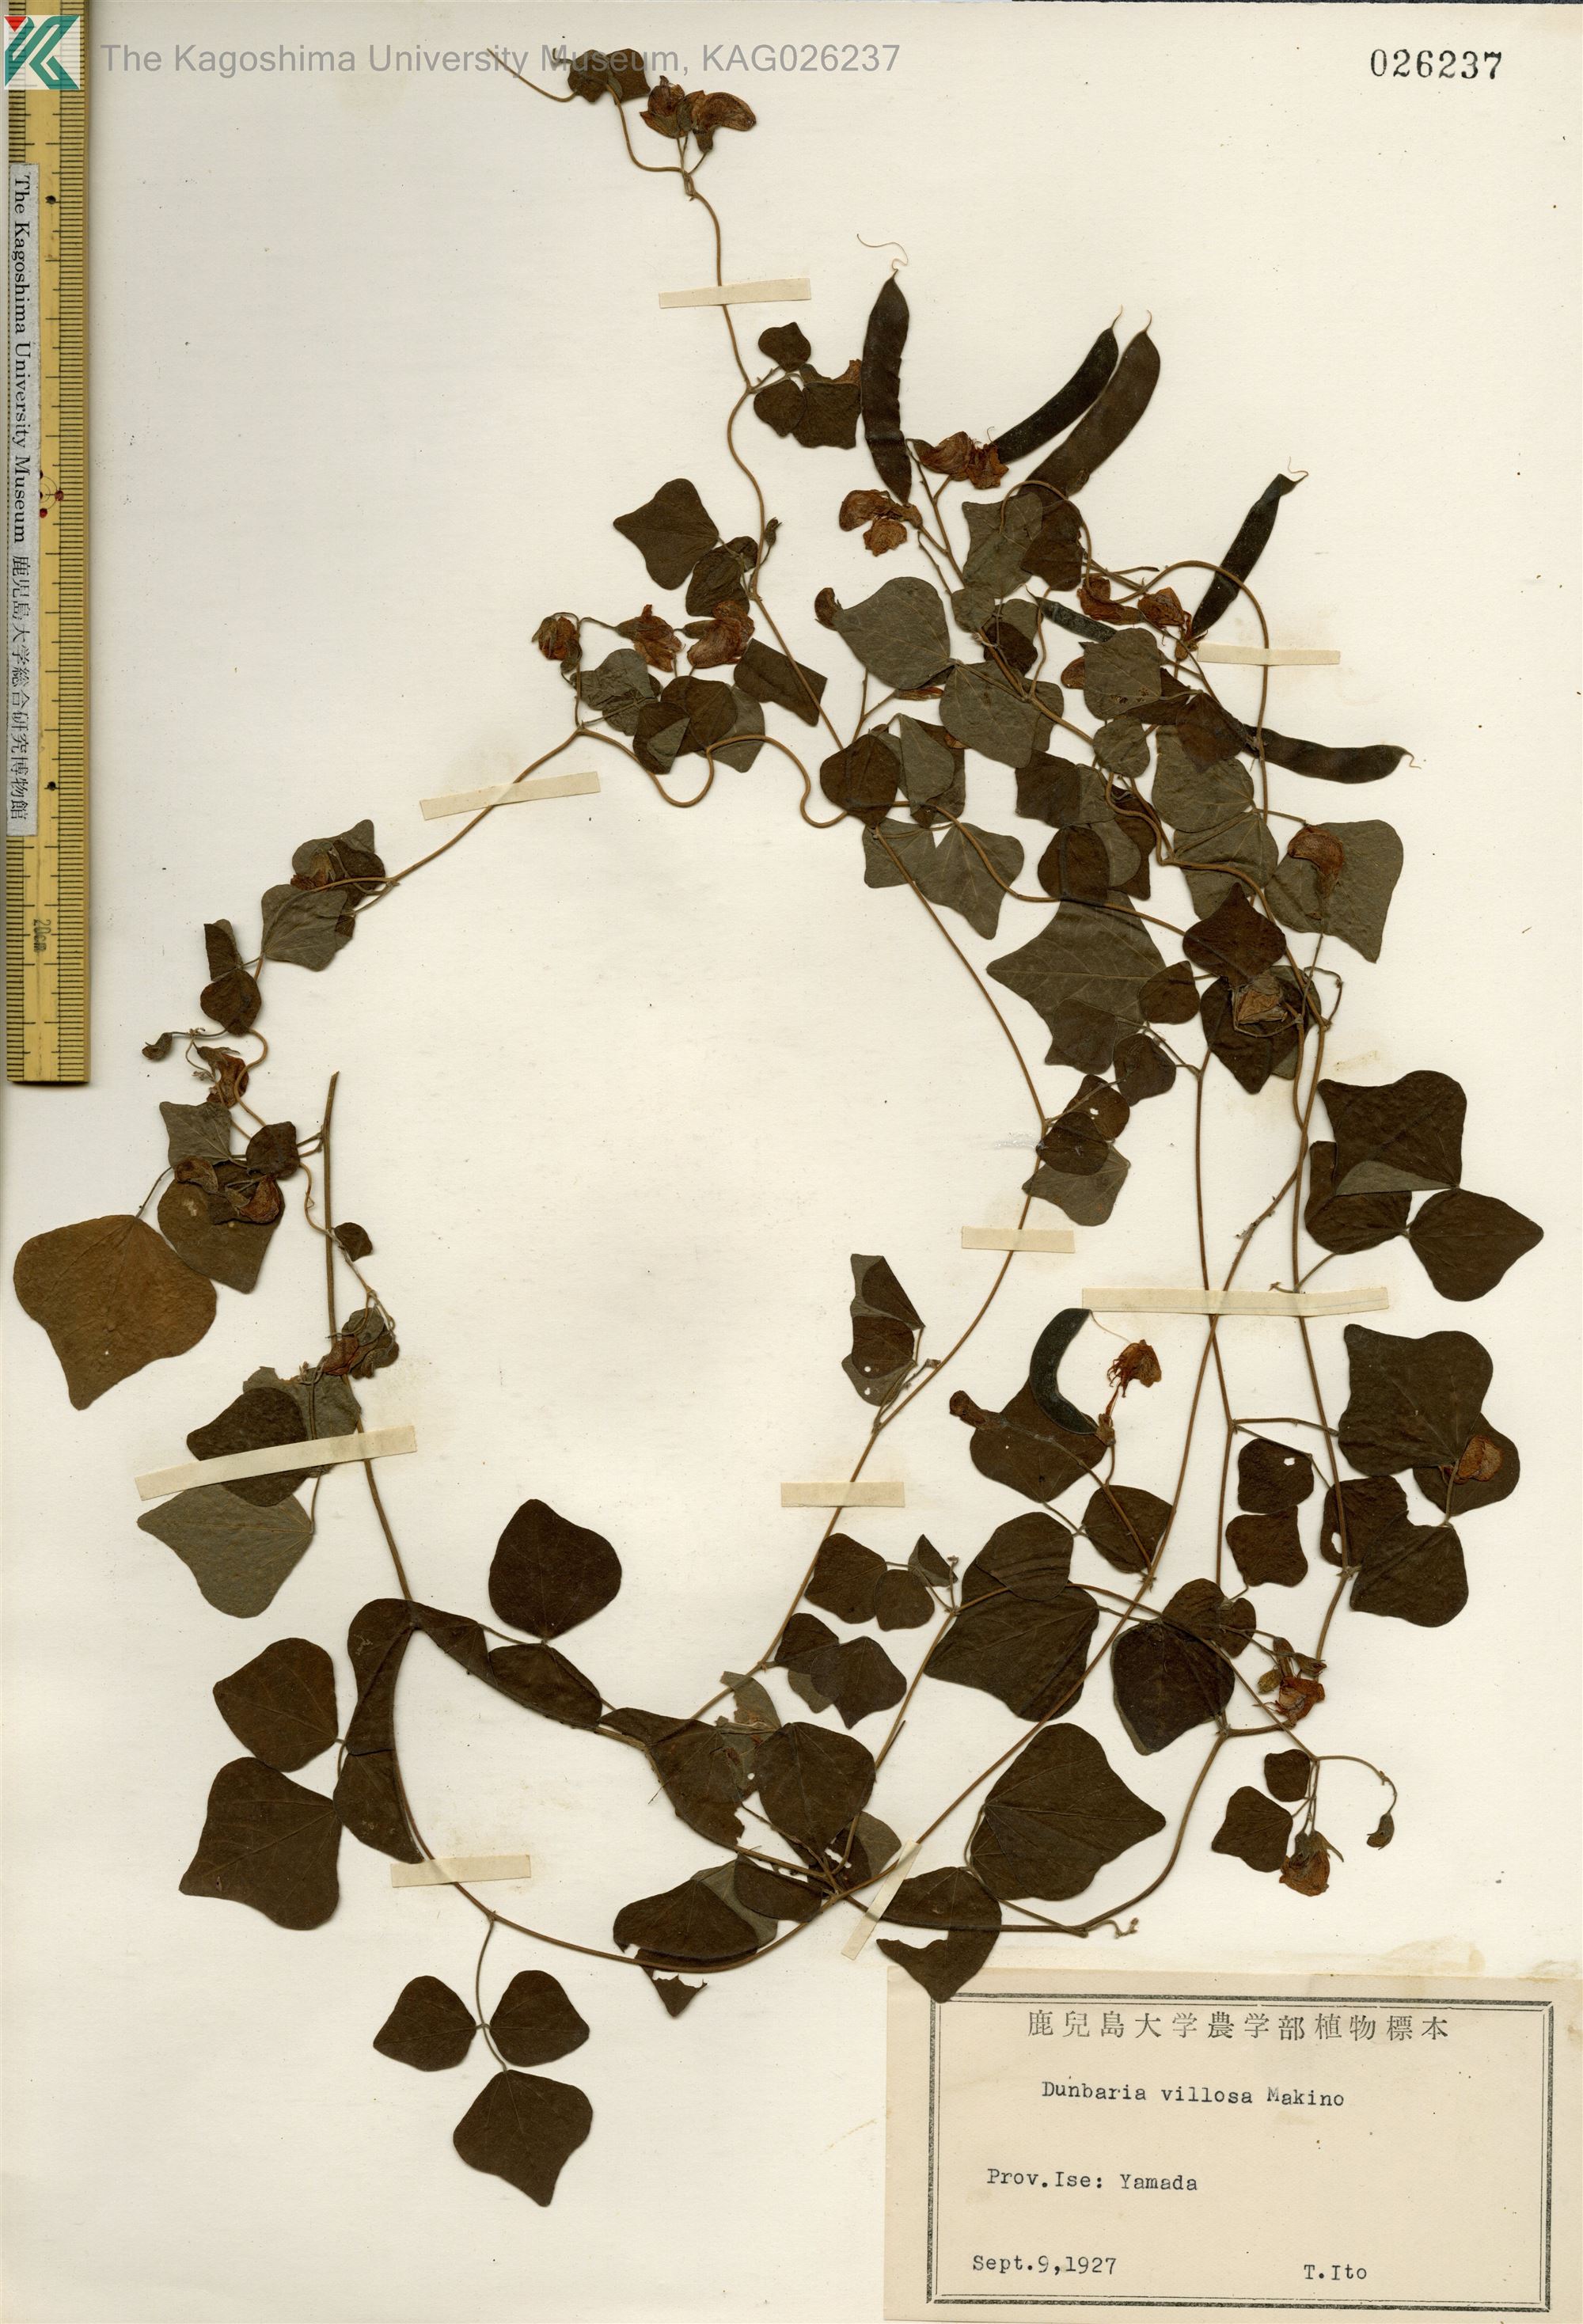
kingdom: Plantae
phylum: Tracheophyta
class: Magnoliopsida
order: Fabales
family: Fabaceae
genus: Dunbaria
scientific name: Dunbaria villosa
